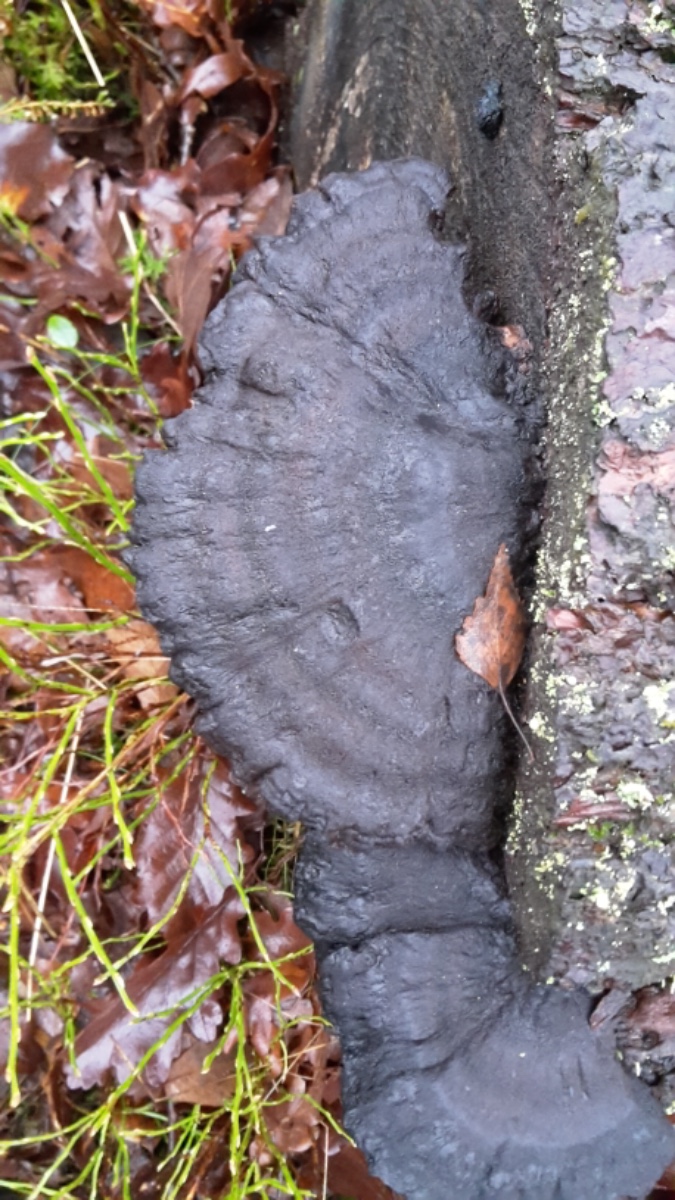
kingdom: Fungi
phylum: Basidiomycota
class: Agaricomycetes
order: Polyporales
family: Ischnodermataceae
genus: Ischnoderma
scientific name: Ischnoderma benzoinum
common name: gran-tjæreporesvamp
